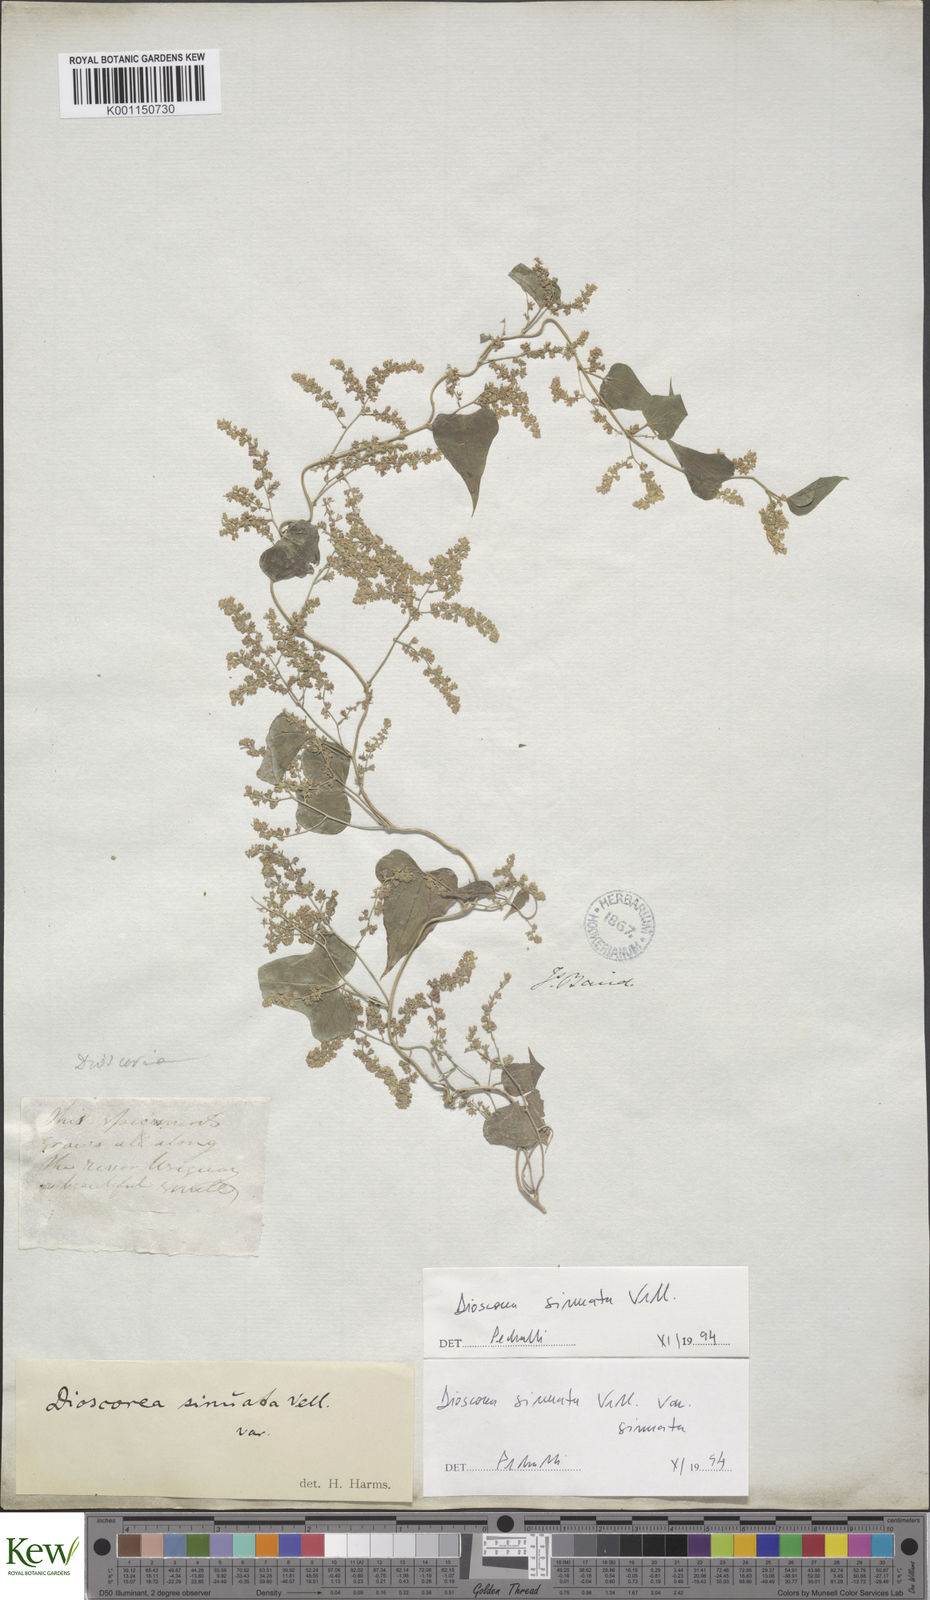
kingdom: Plantae
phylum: Tracheophyta
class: Liliopsida
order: Dioscoreales
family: Dioscoreaceae
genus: Dioscorea
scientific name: Dioscorea sinuata
